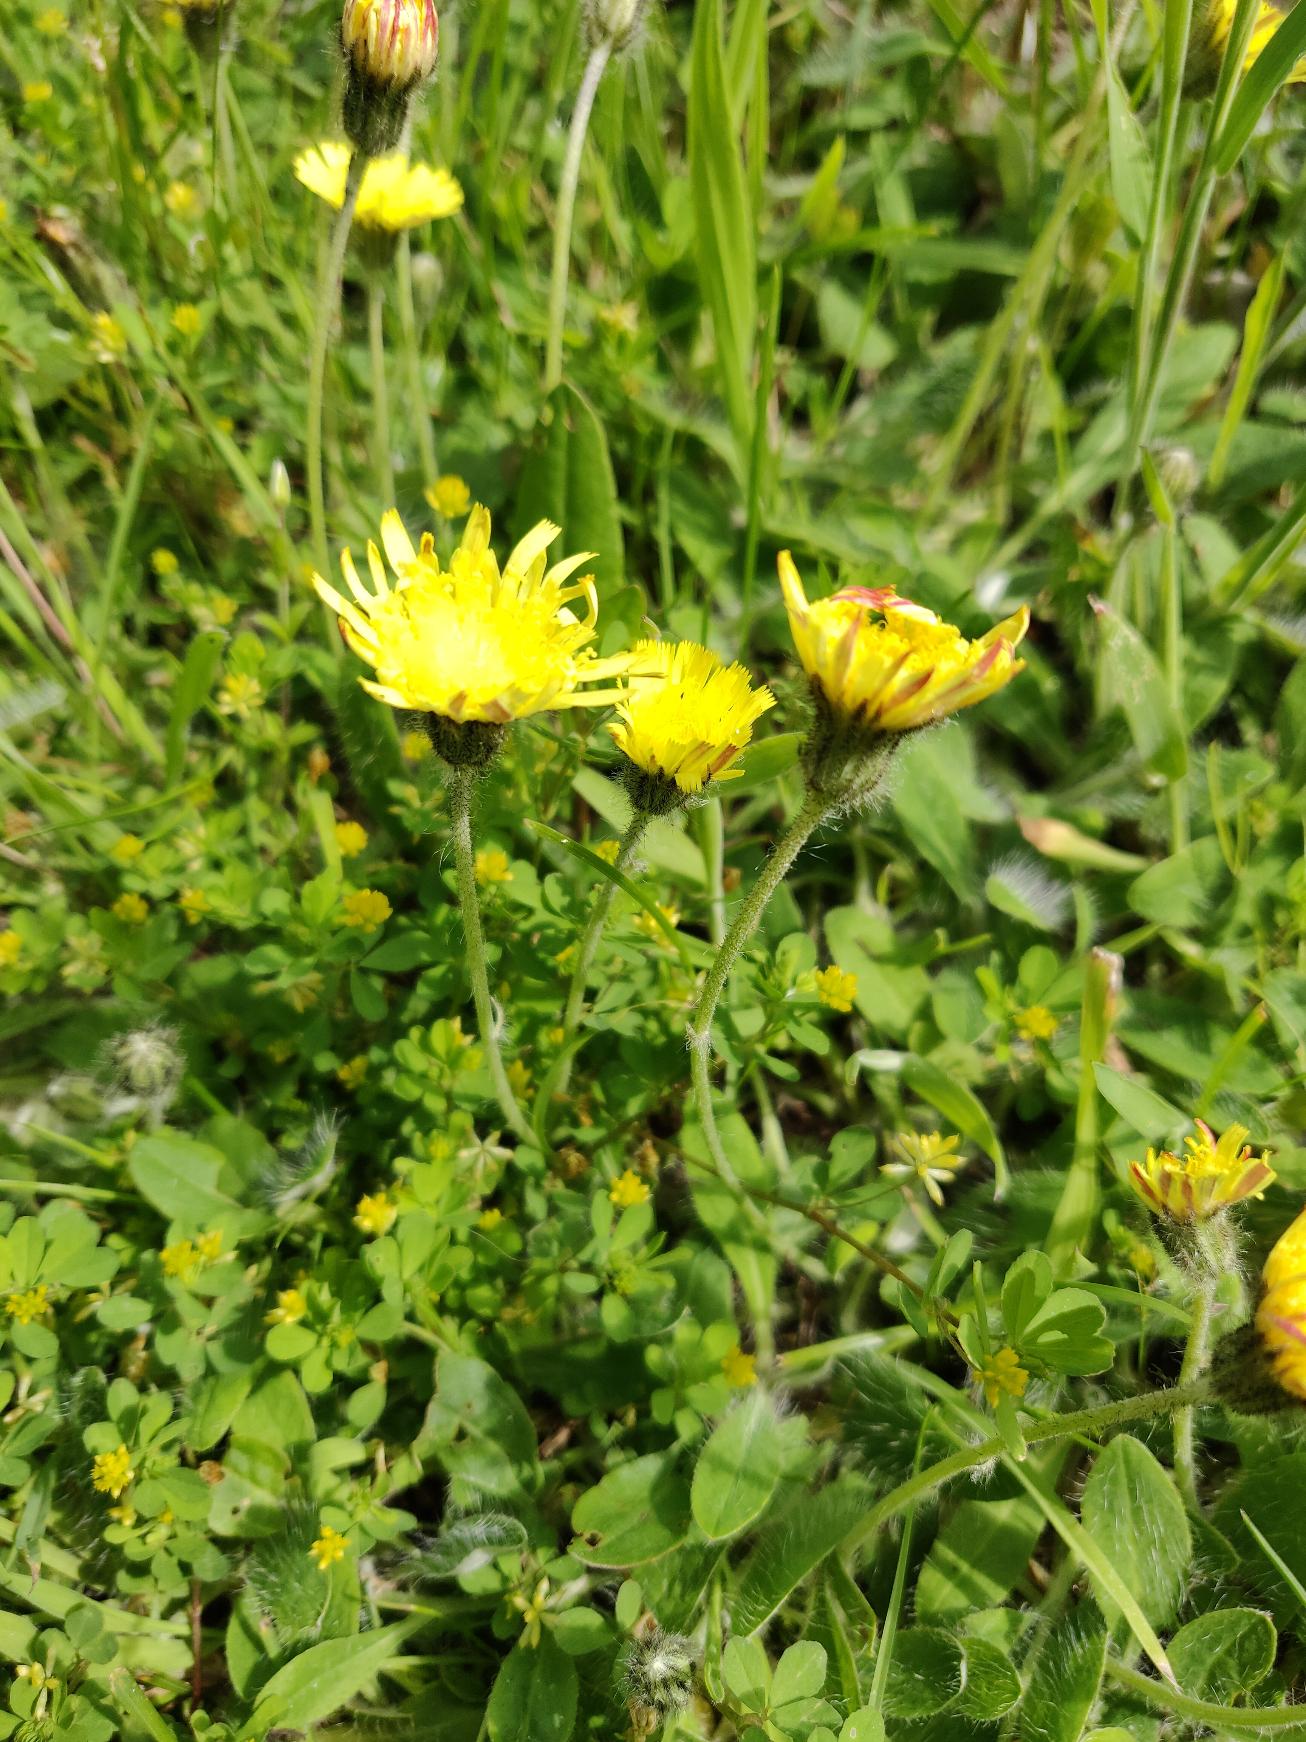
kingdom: Plantae
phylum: Tracheophyta
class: Magnoliopsida
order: Asterales
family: Asteraceae
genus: Pilosella
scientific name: Pilosella officinarum
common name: Håret høgeurt
